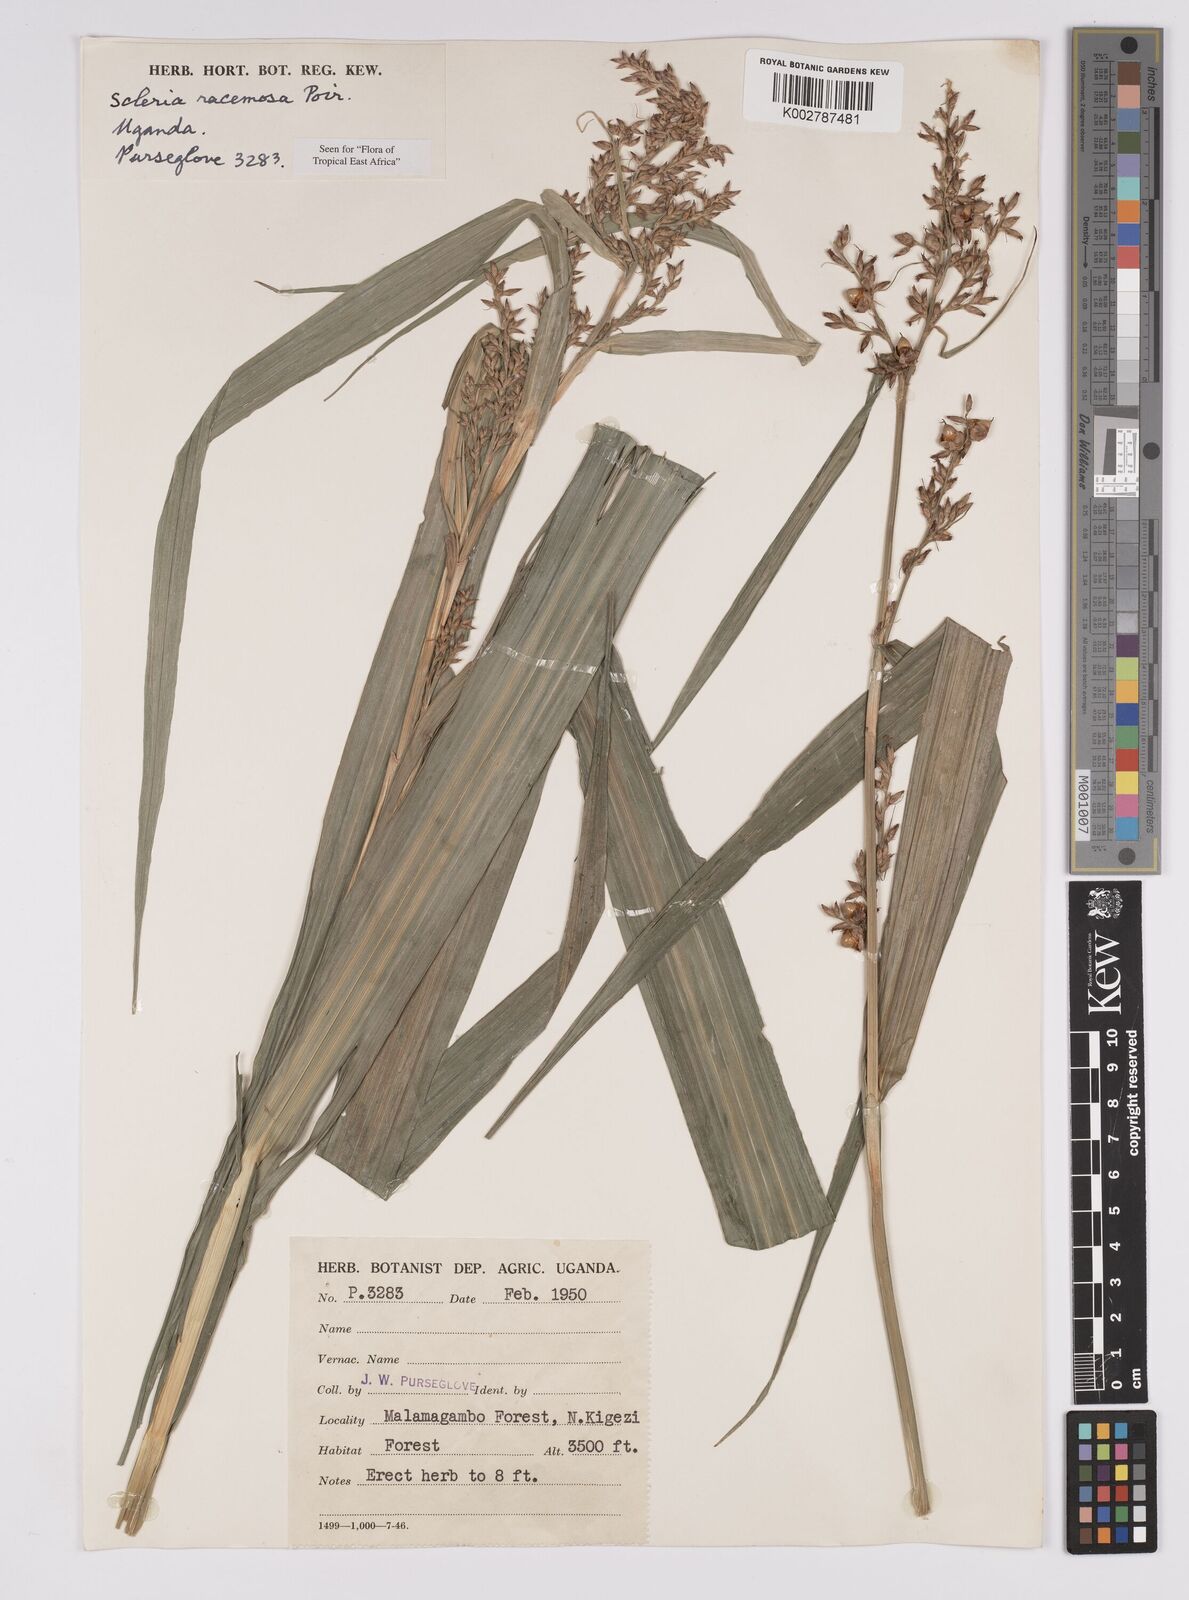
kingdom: Plantae
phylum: Tracheophyta
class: Liliopsida
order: Poales
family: Cyperaceae
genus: Scleria
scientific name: Scleria racemosa
